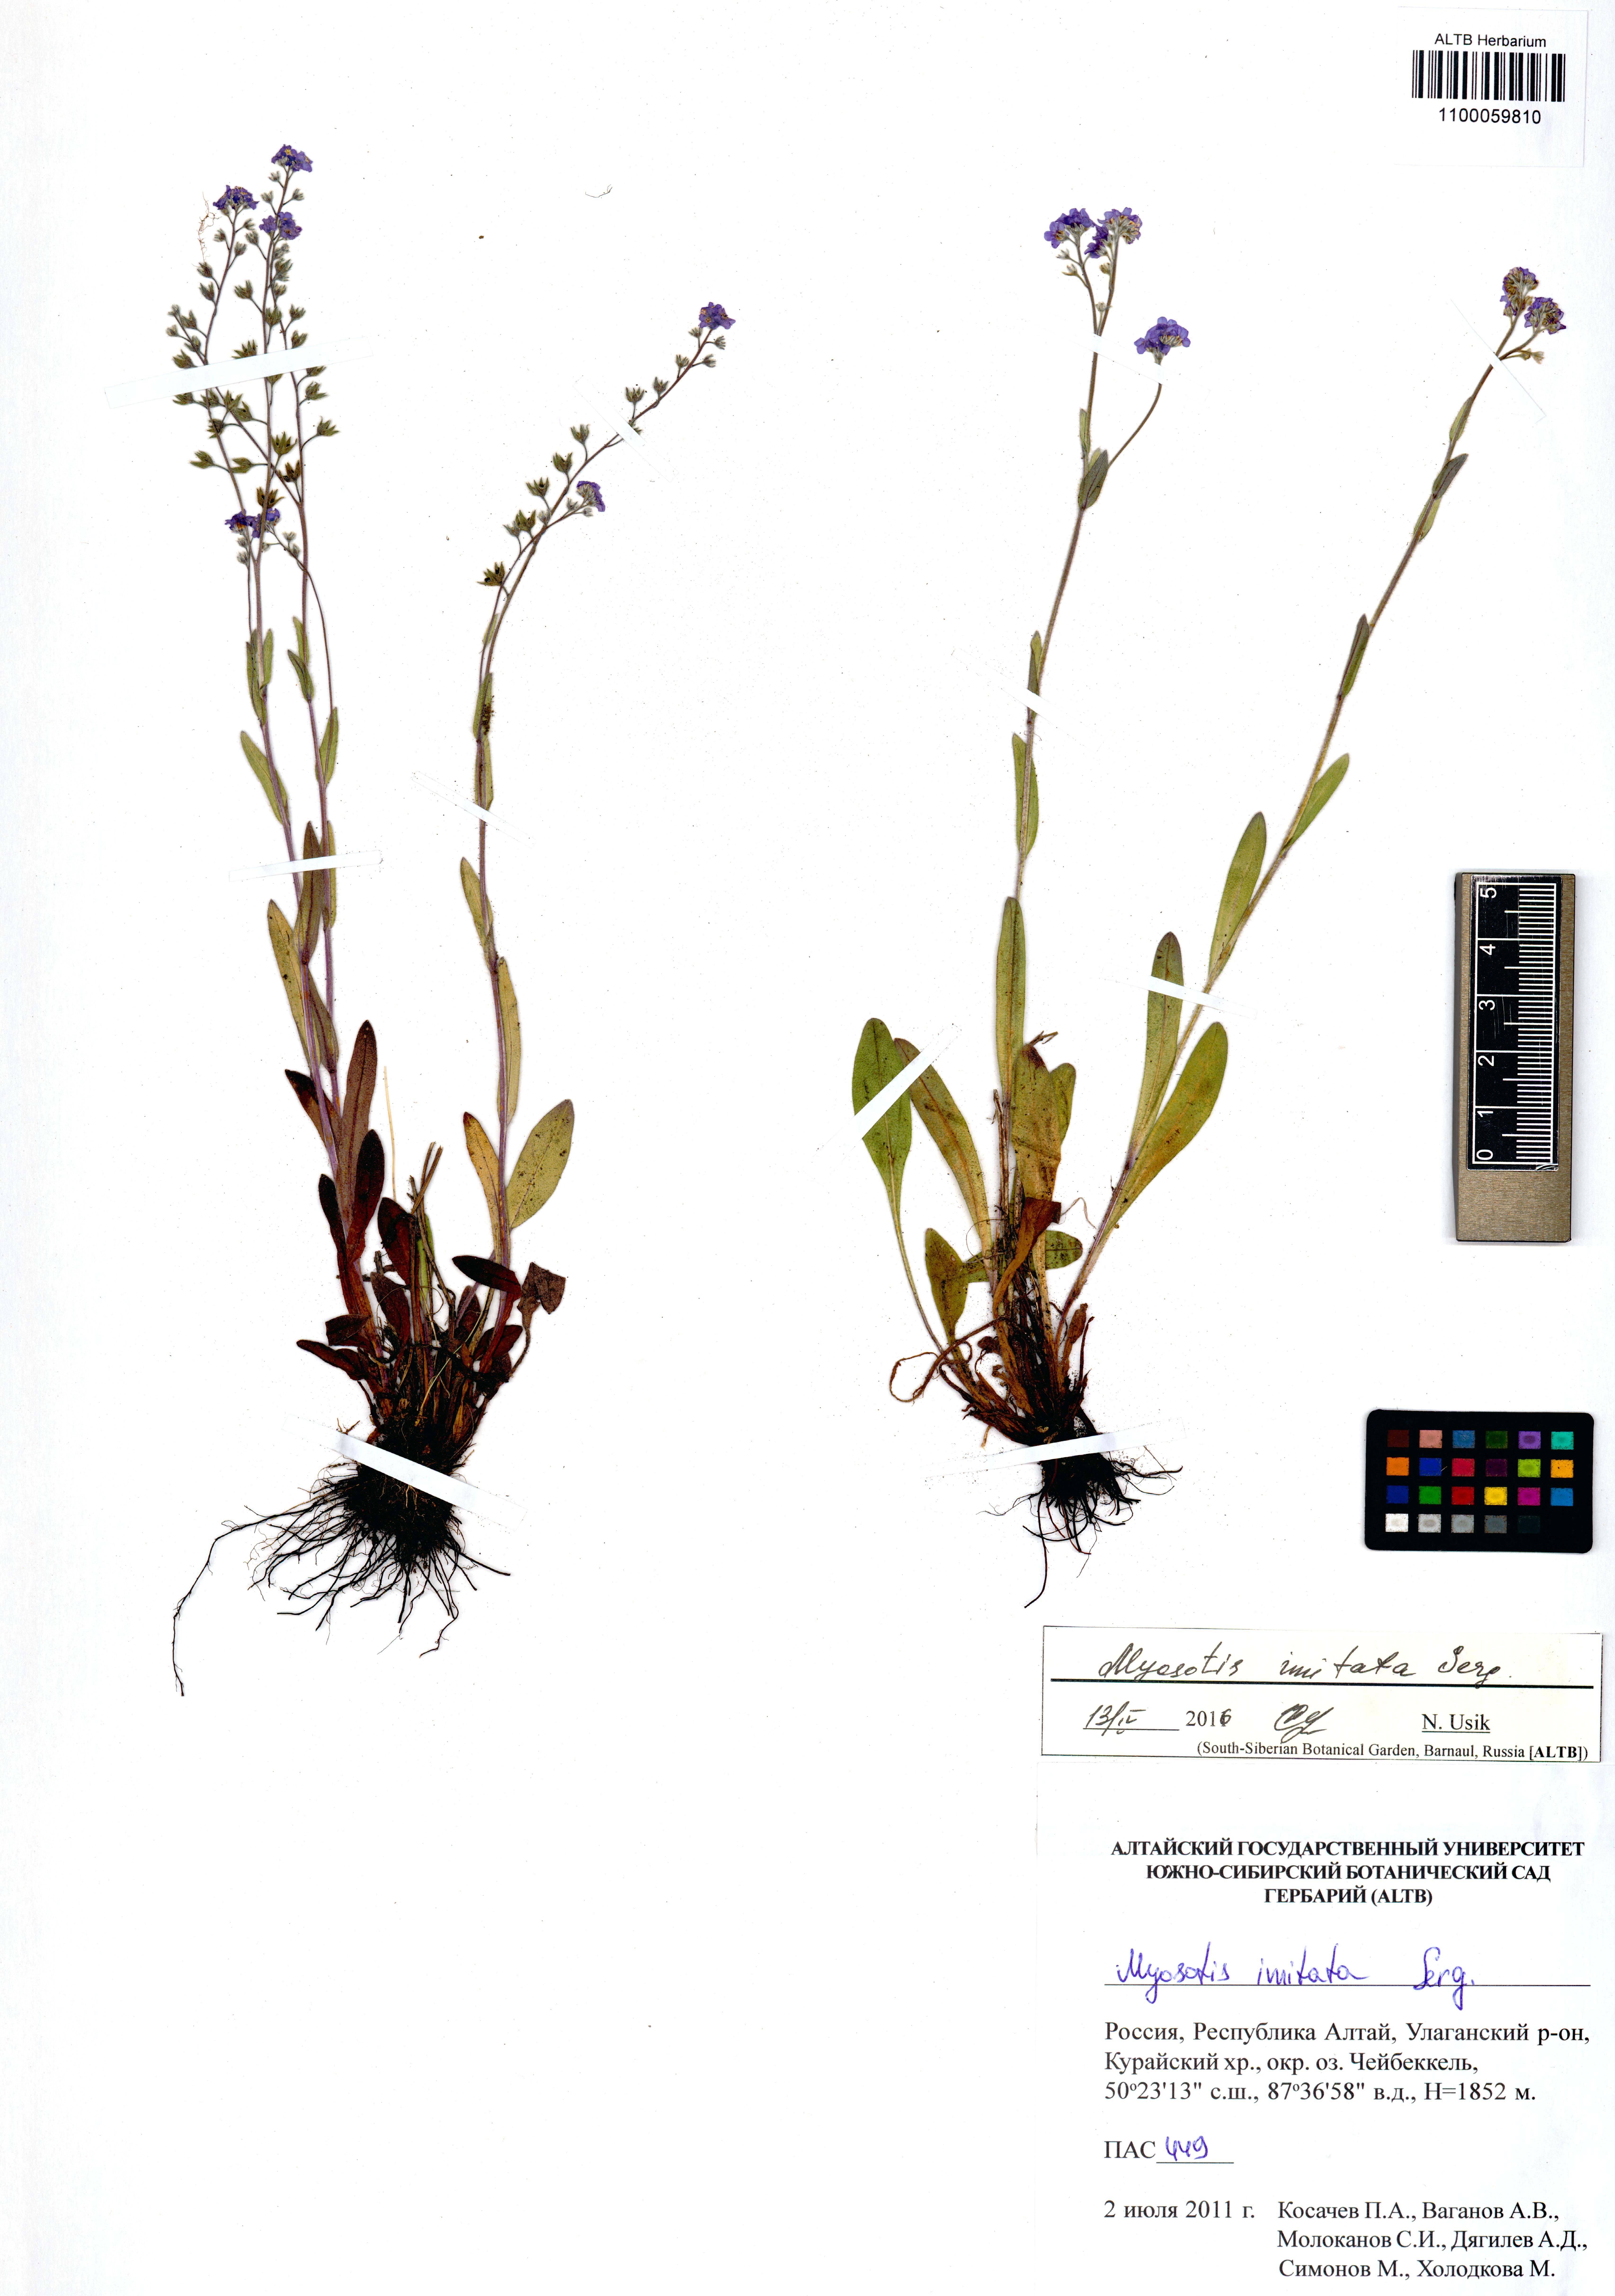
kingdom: Plantae
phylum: Tracheophyta
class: Magnoliopsida
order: Boraginales
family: Boraginaceae
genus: Myosotis
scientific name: Myosotis imitata
